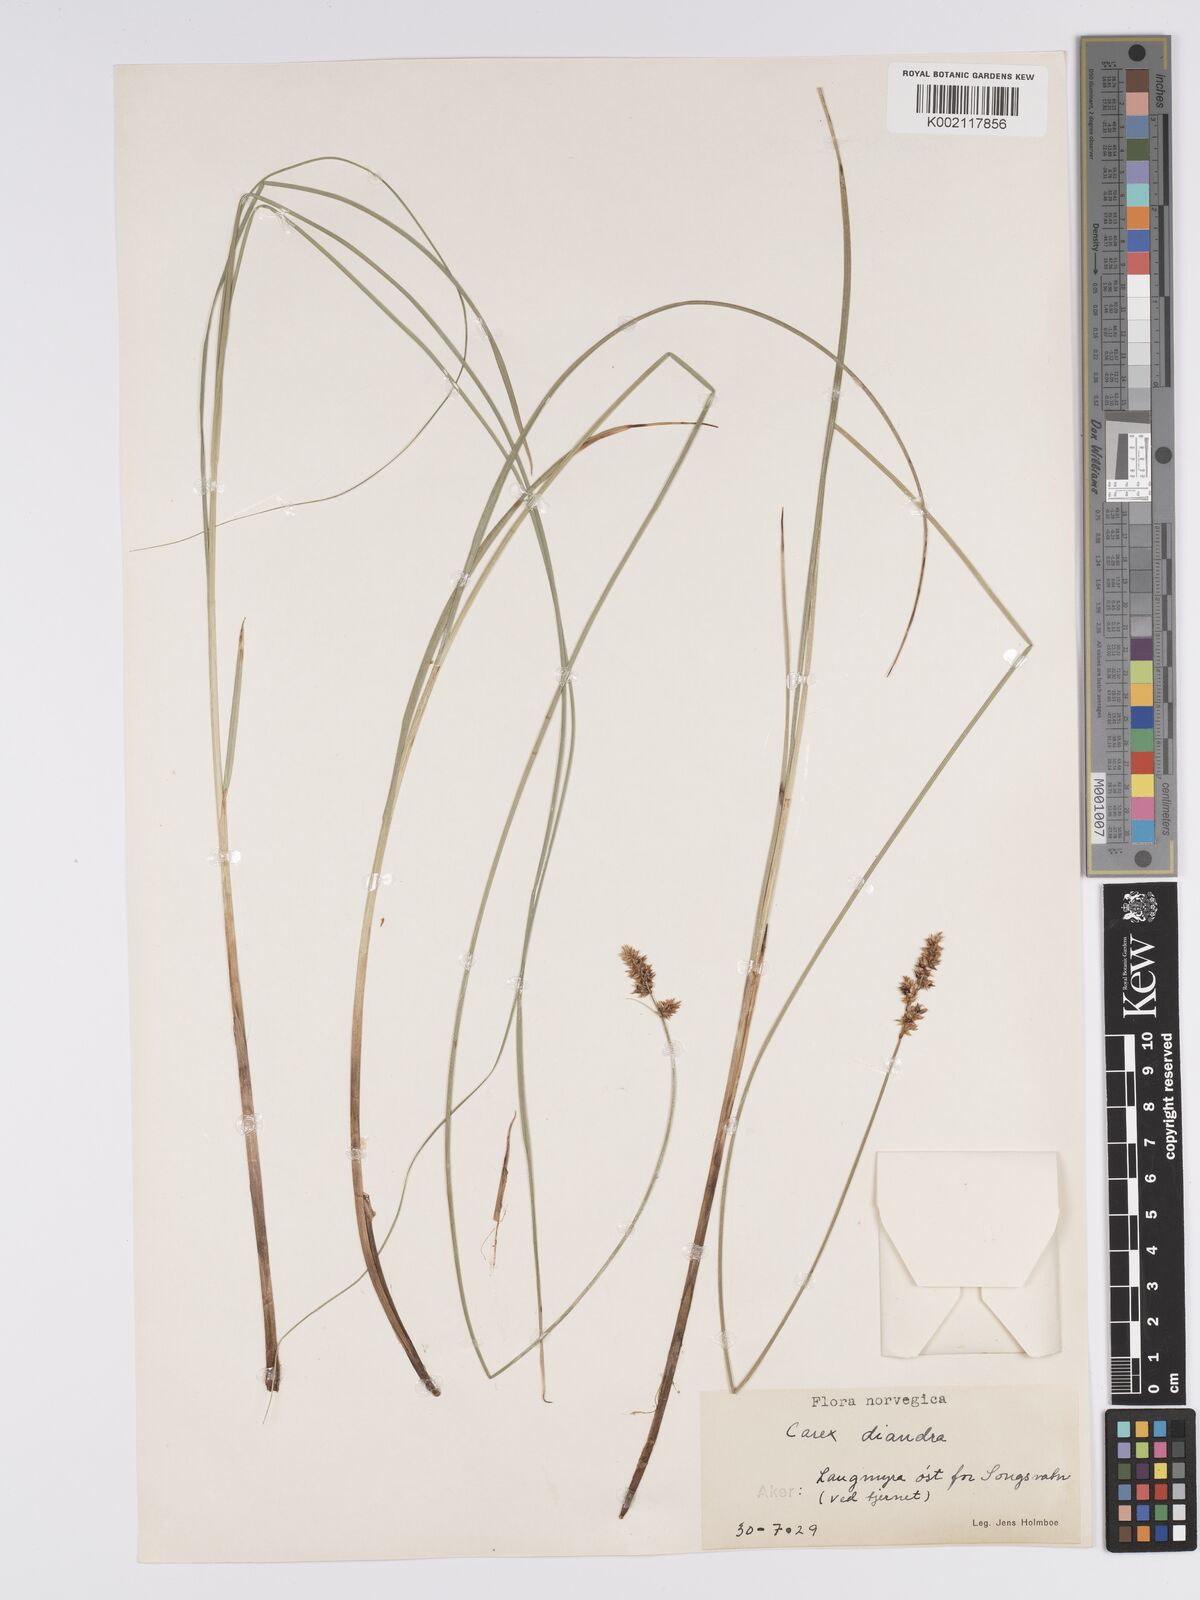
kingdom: Plantae
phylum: Tracheophyta
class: Liliopsida
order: Poales
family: Cyperaceae
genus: Carex
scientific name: Carex diandra
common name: Lesser tussock-sedge
